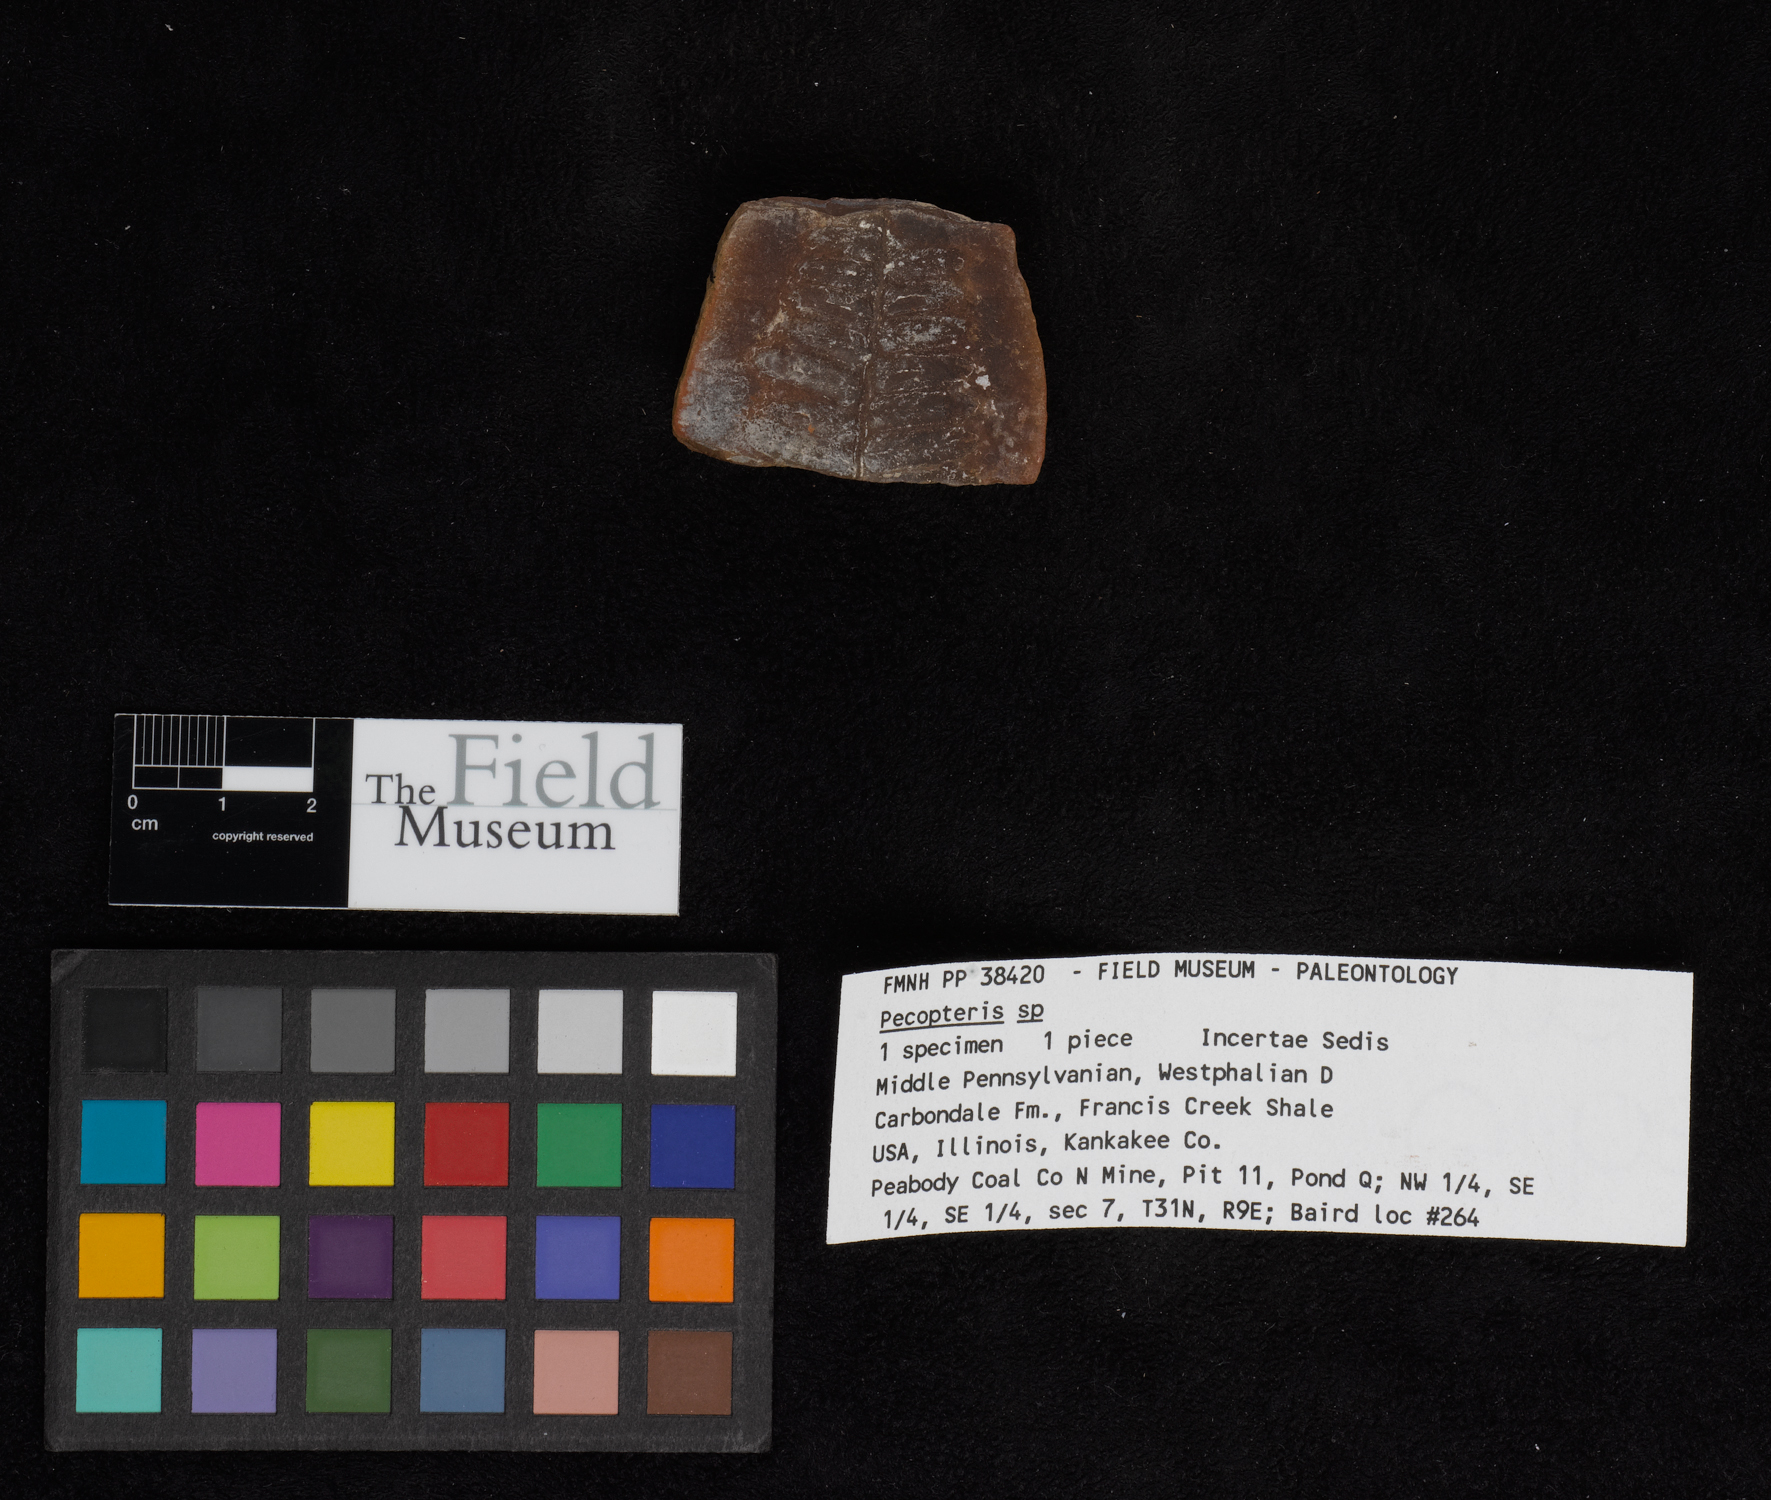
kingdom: Plantae
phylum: Tracheophyta
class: Polypodiopsida
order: Marattiales
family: Asterothecaceae
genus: Pecopteris
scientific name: Pecopteris
